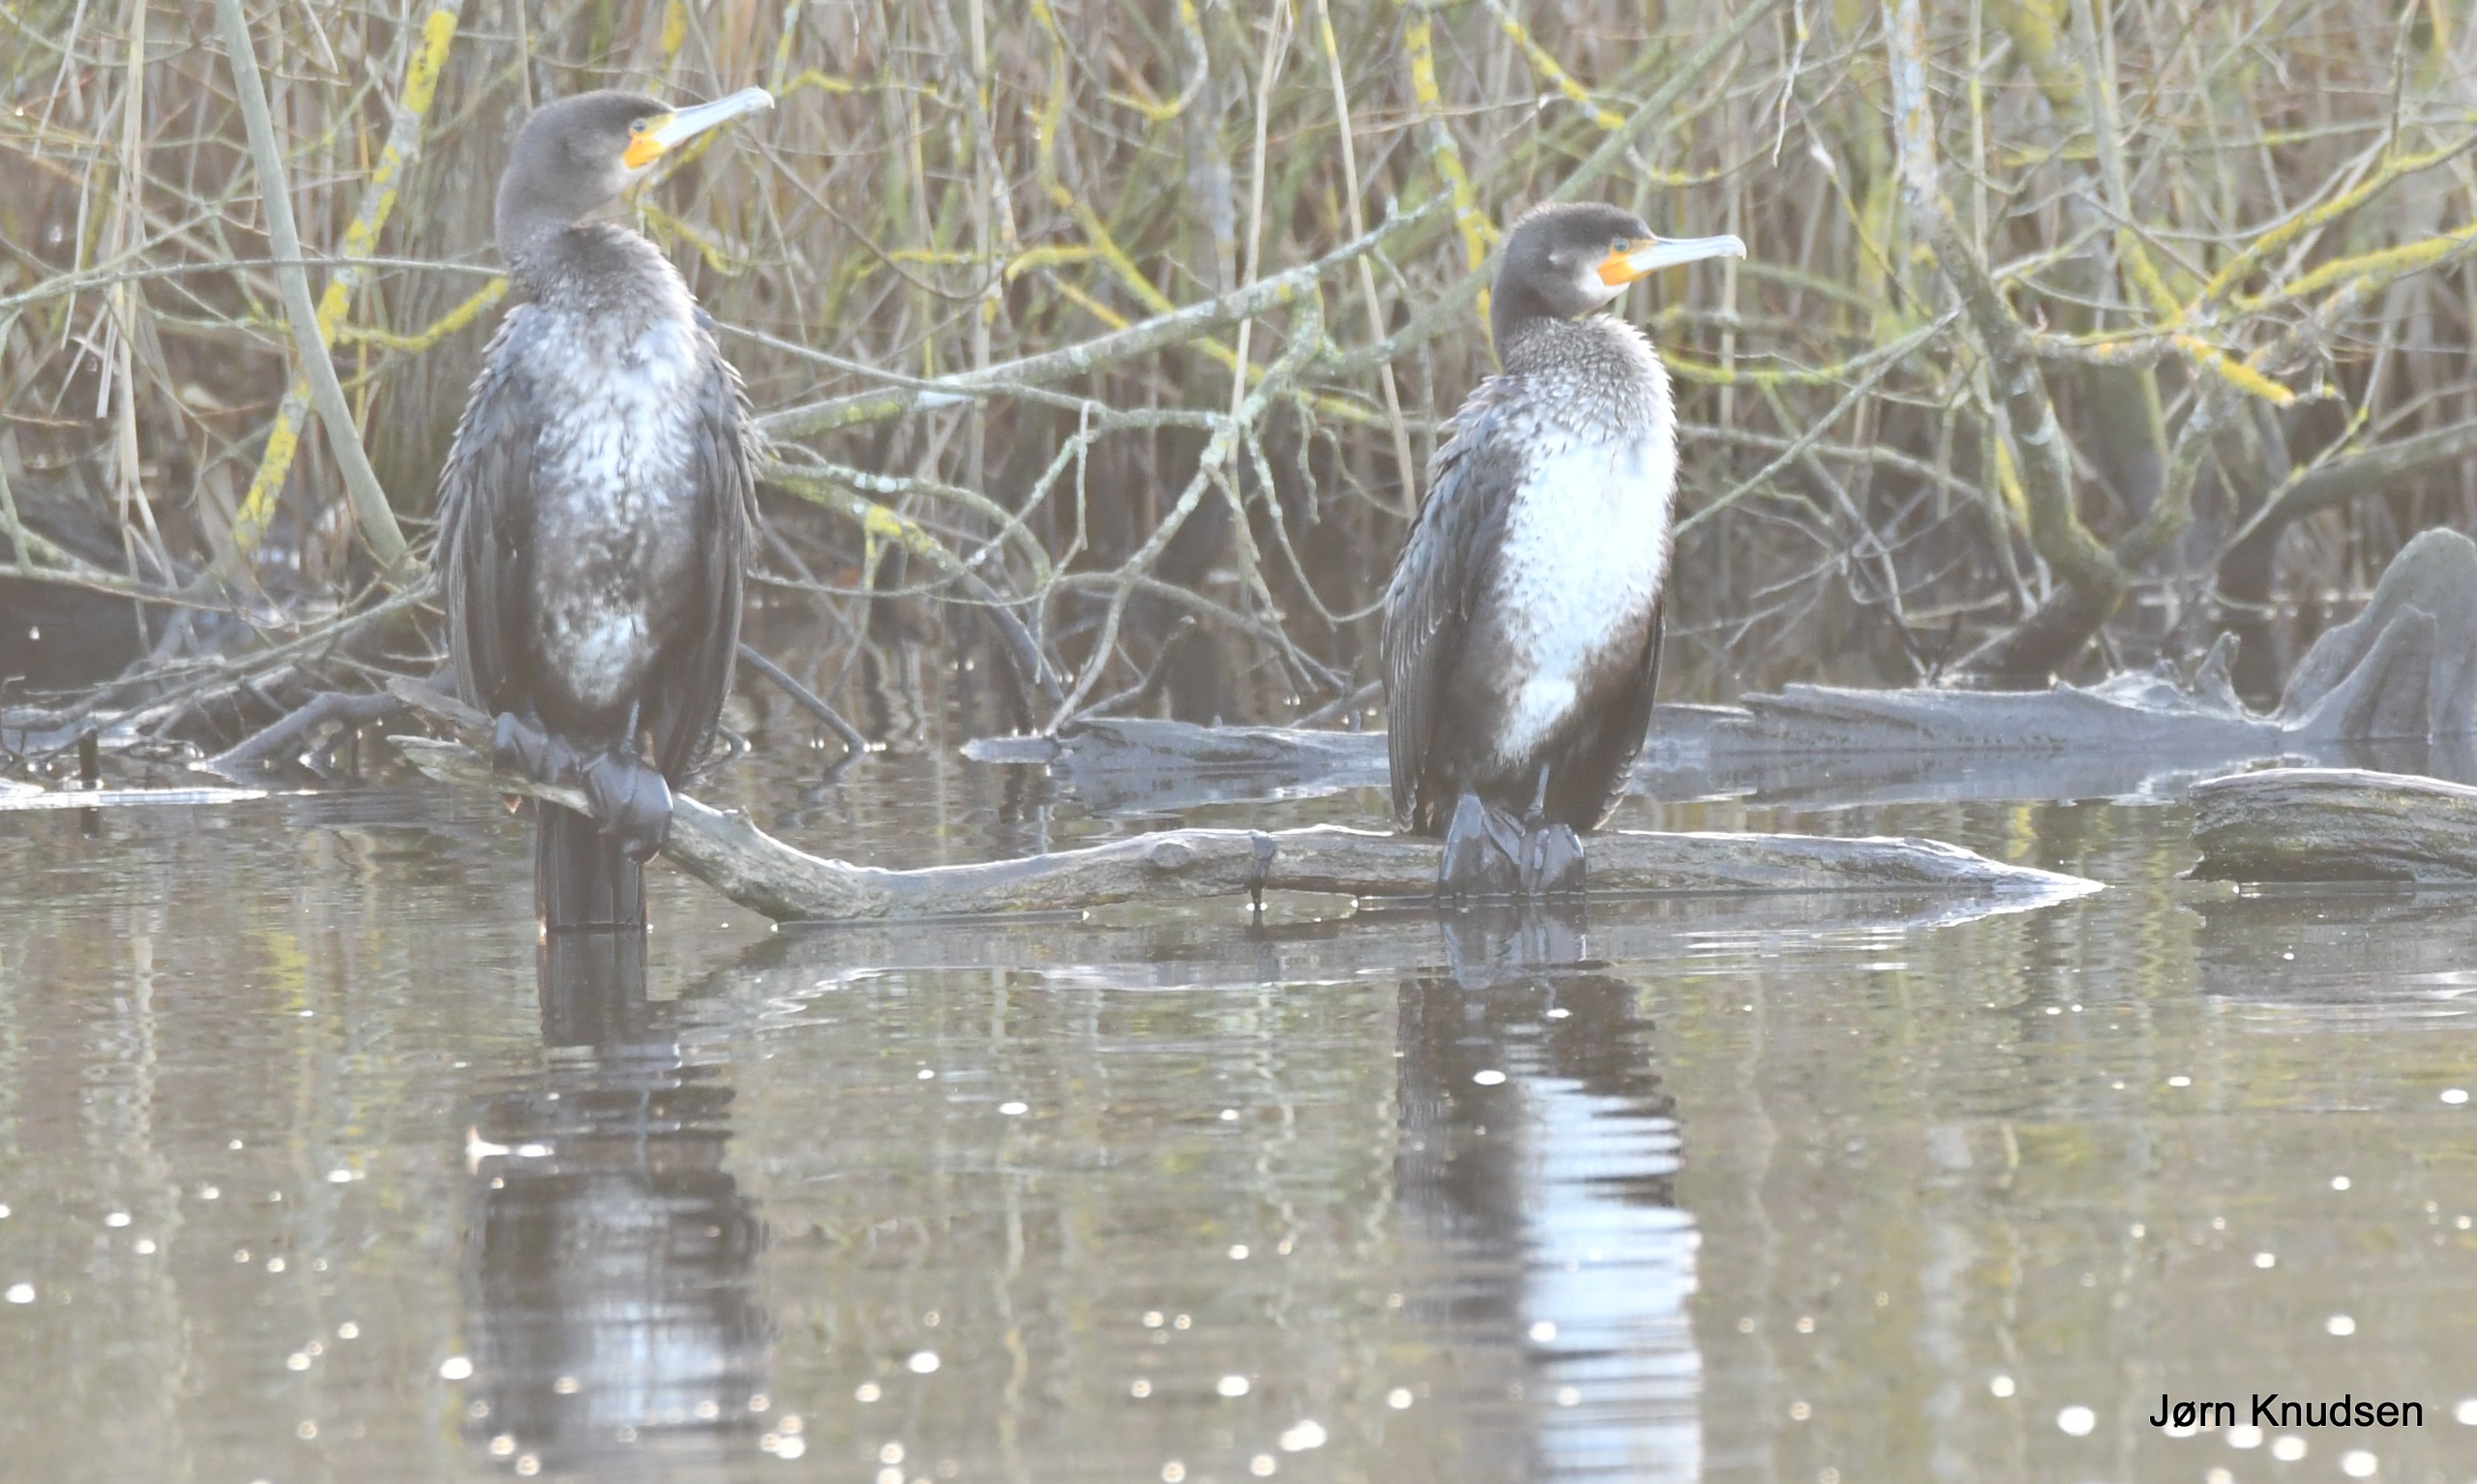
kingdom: Animalia
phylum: Chordata
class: Aves
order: Suliformes
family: Phalacrocoracidae
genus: Phalacrocorax
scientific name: Phalacrocorax carbo
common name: Skarv
